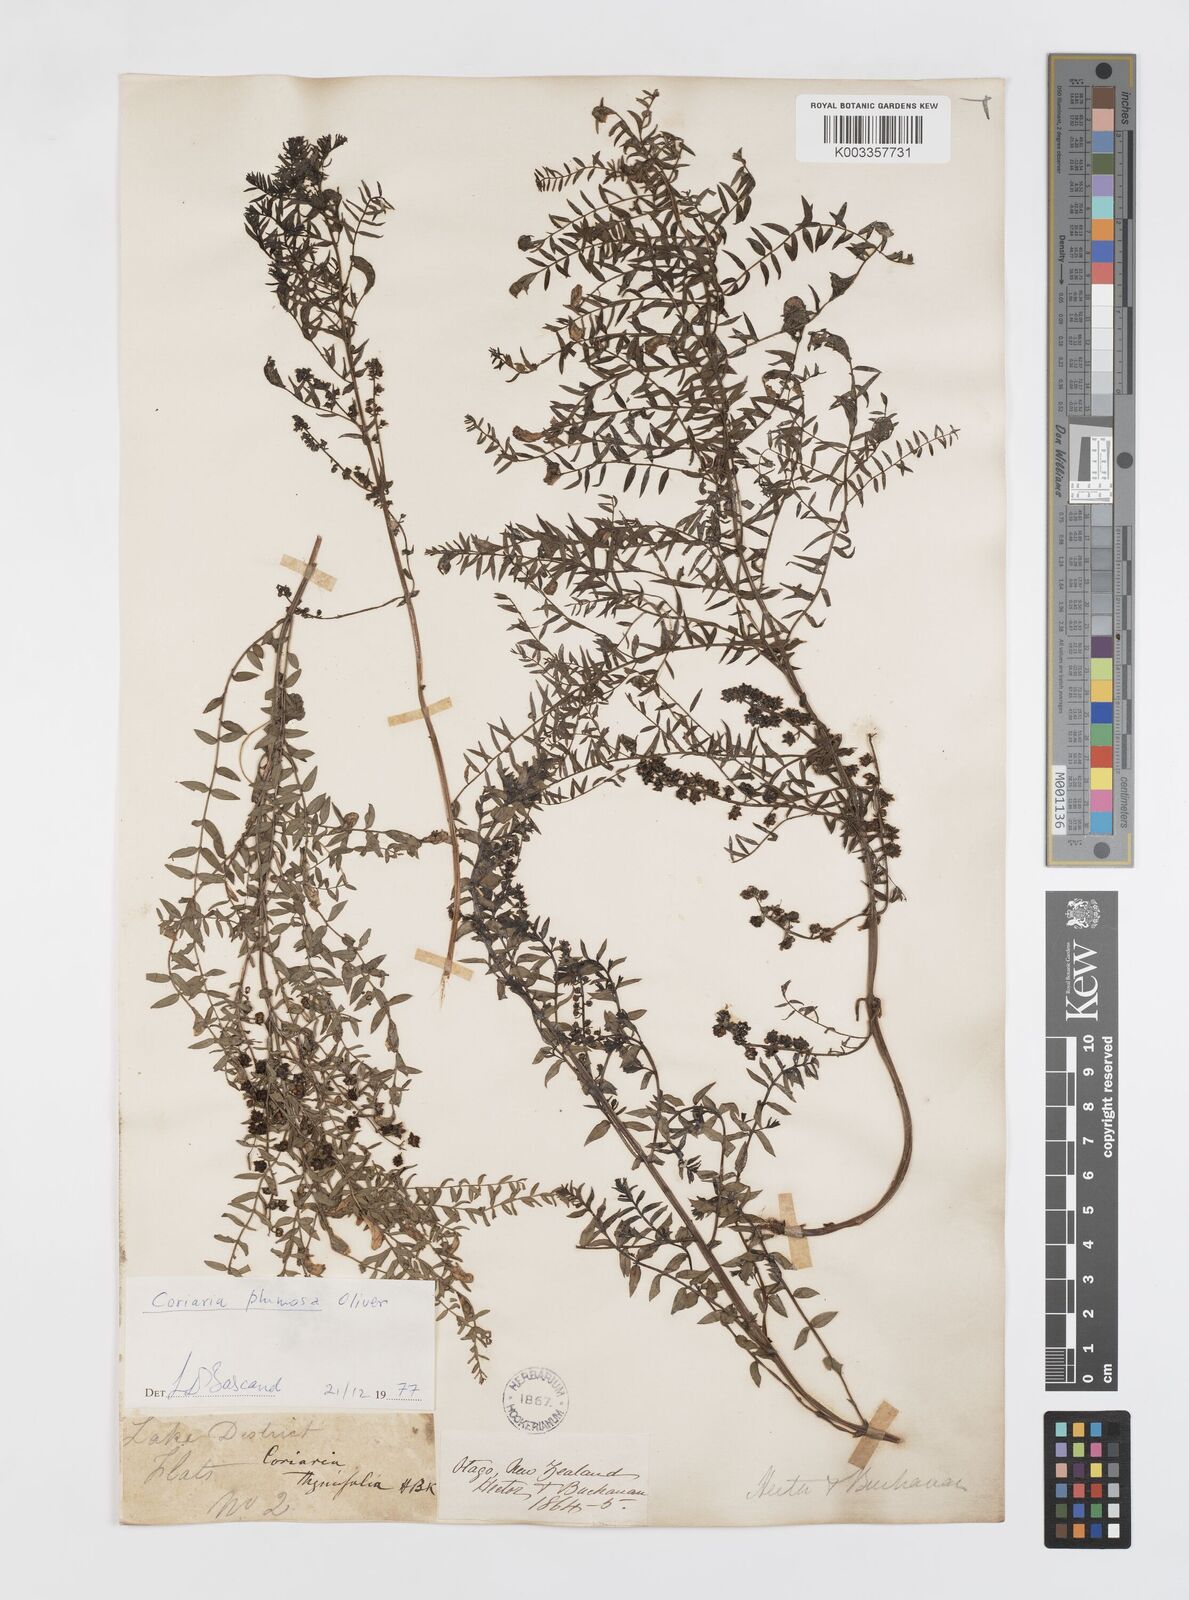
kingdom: Plantae
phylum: Tracheophyta
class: Magnoliopsida
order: Cucurbitales
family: Coriariaceae
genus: Coriaria
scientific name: Coriaria plumosa
